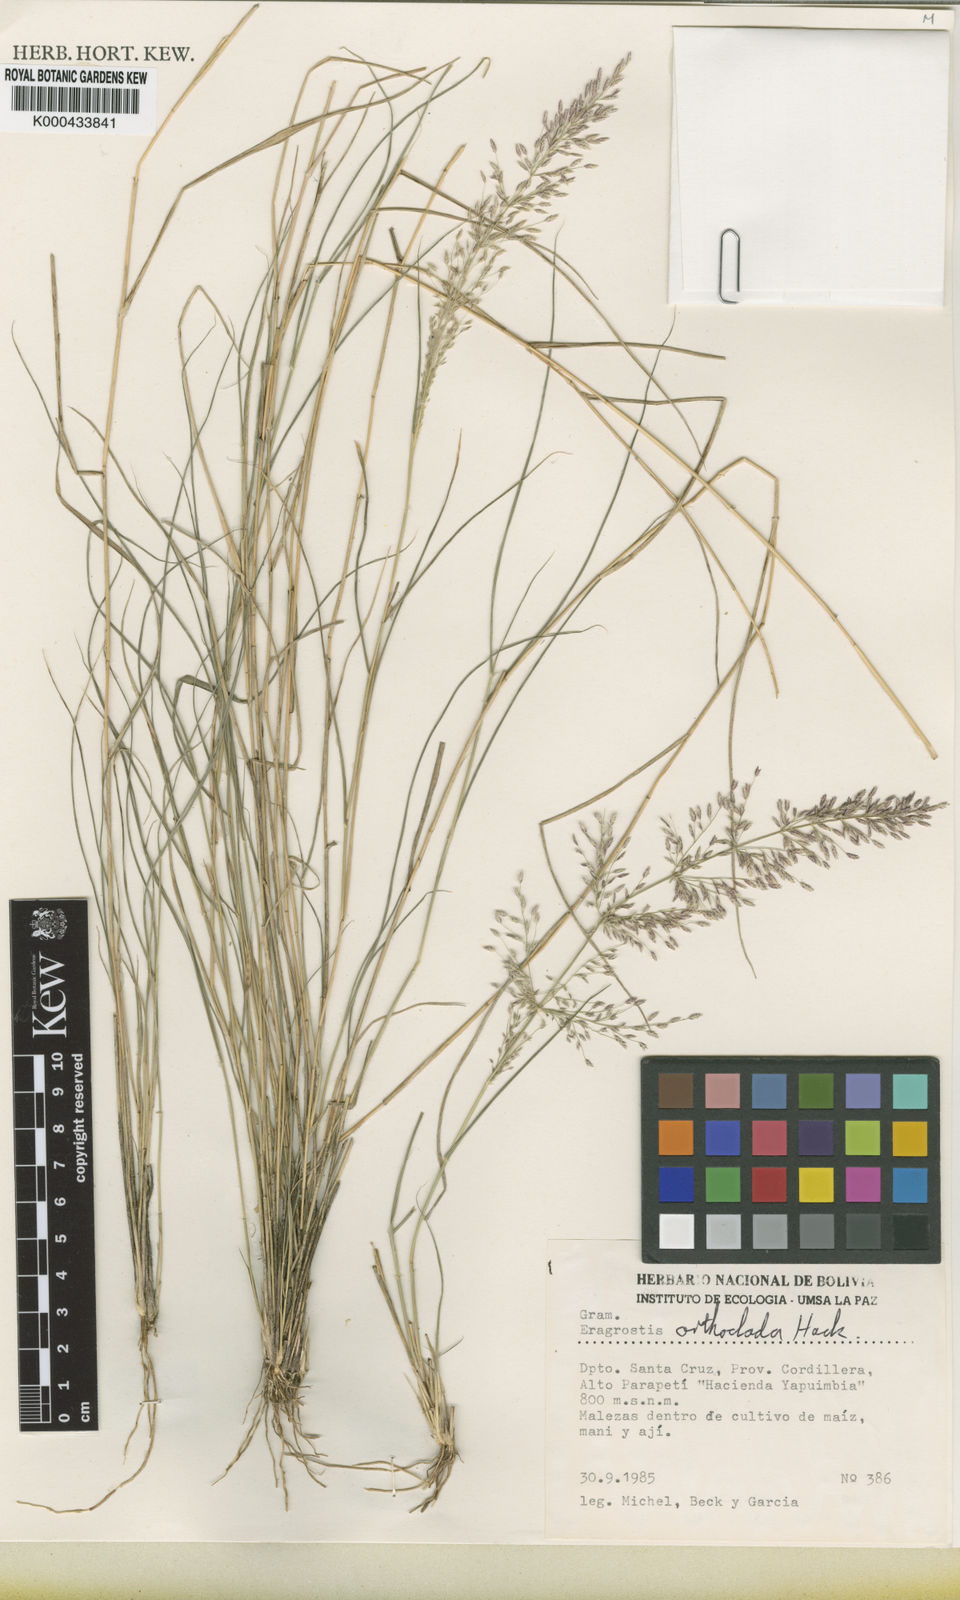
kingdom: Plantae
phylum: Tracheophyta
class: Liliopsida
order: Poales
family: Poaceae
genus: Eragrostis
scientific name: Eragrostis orthoclada
